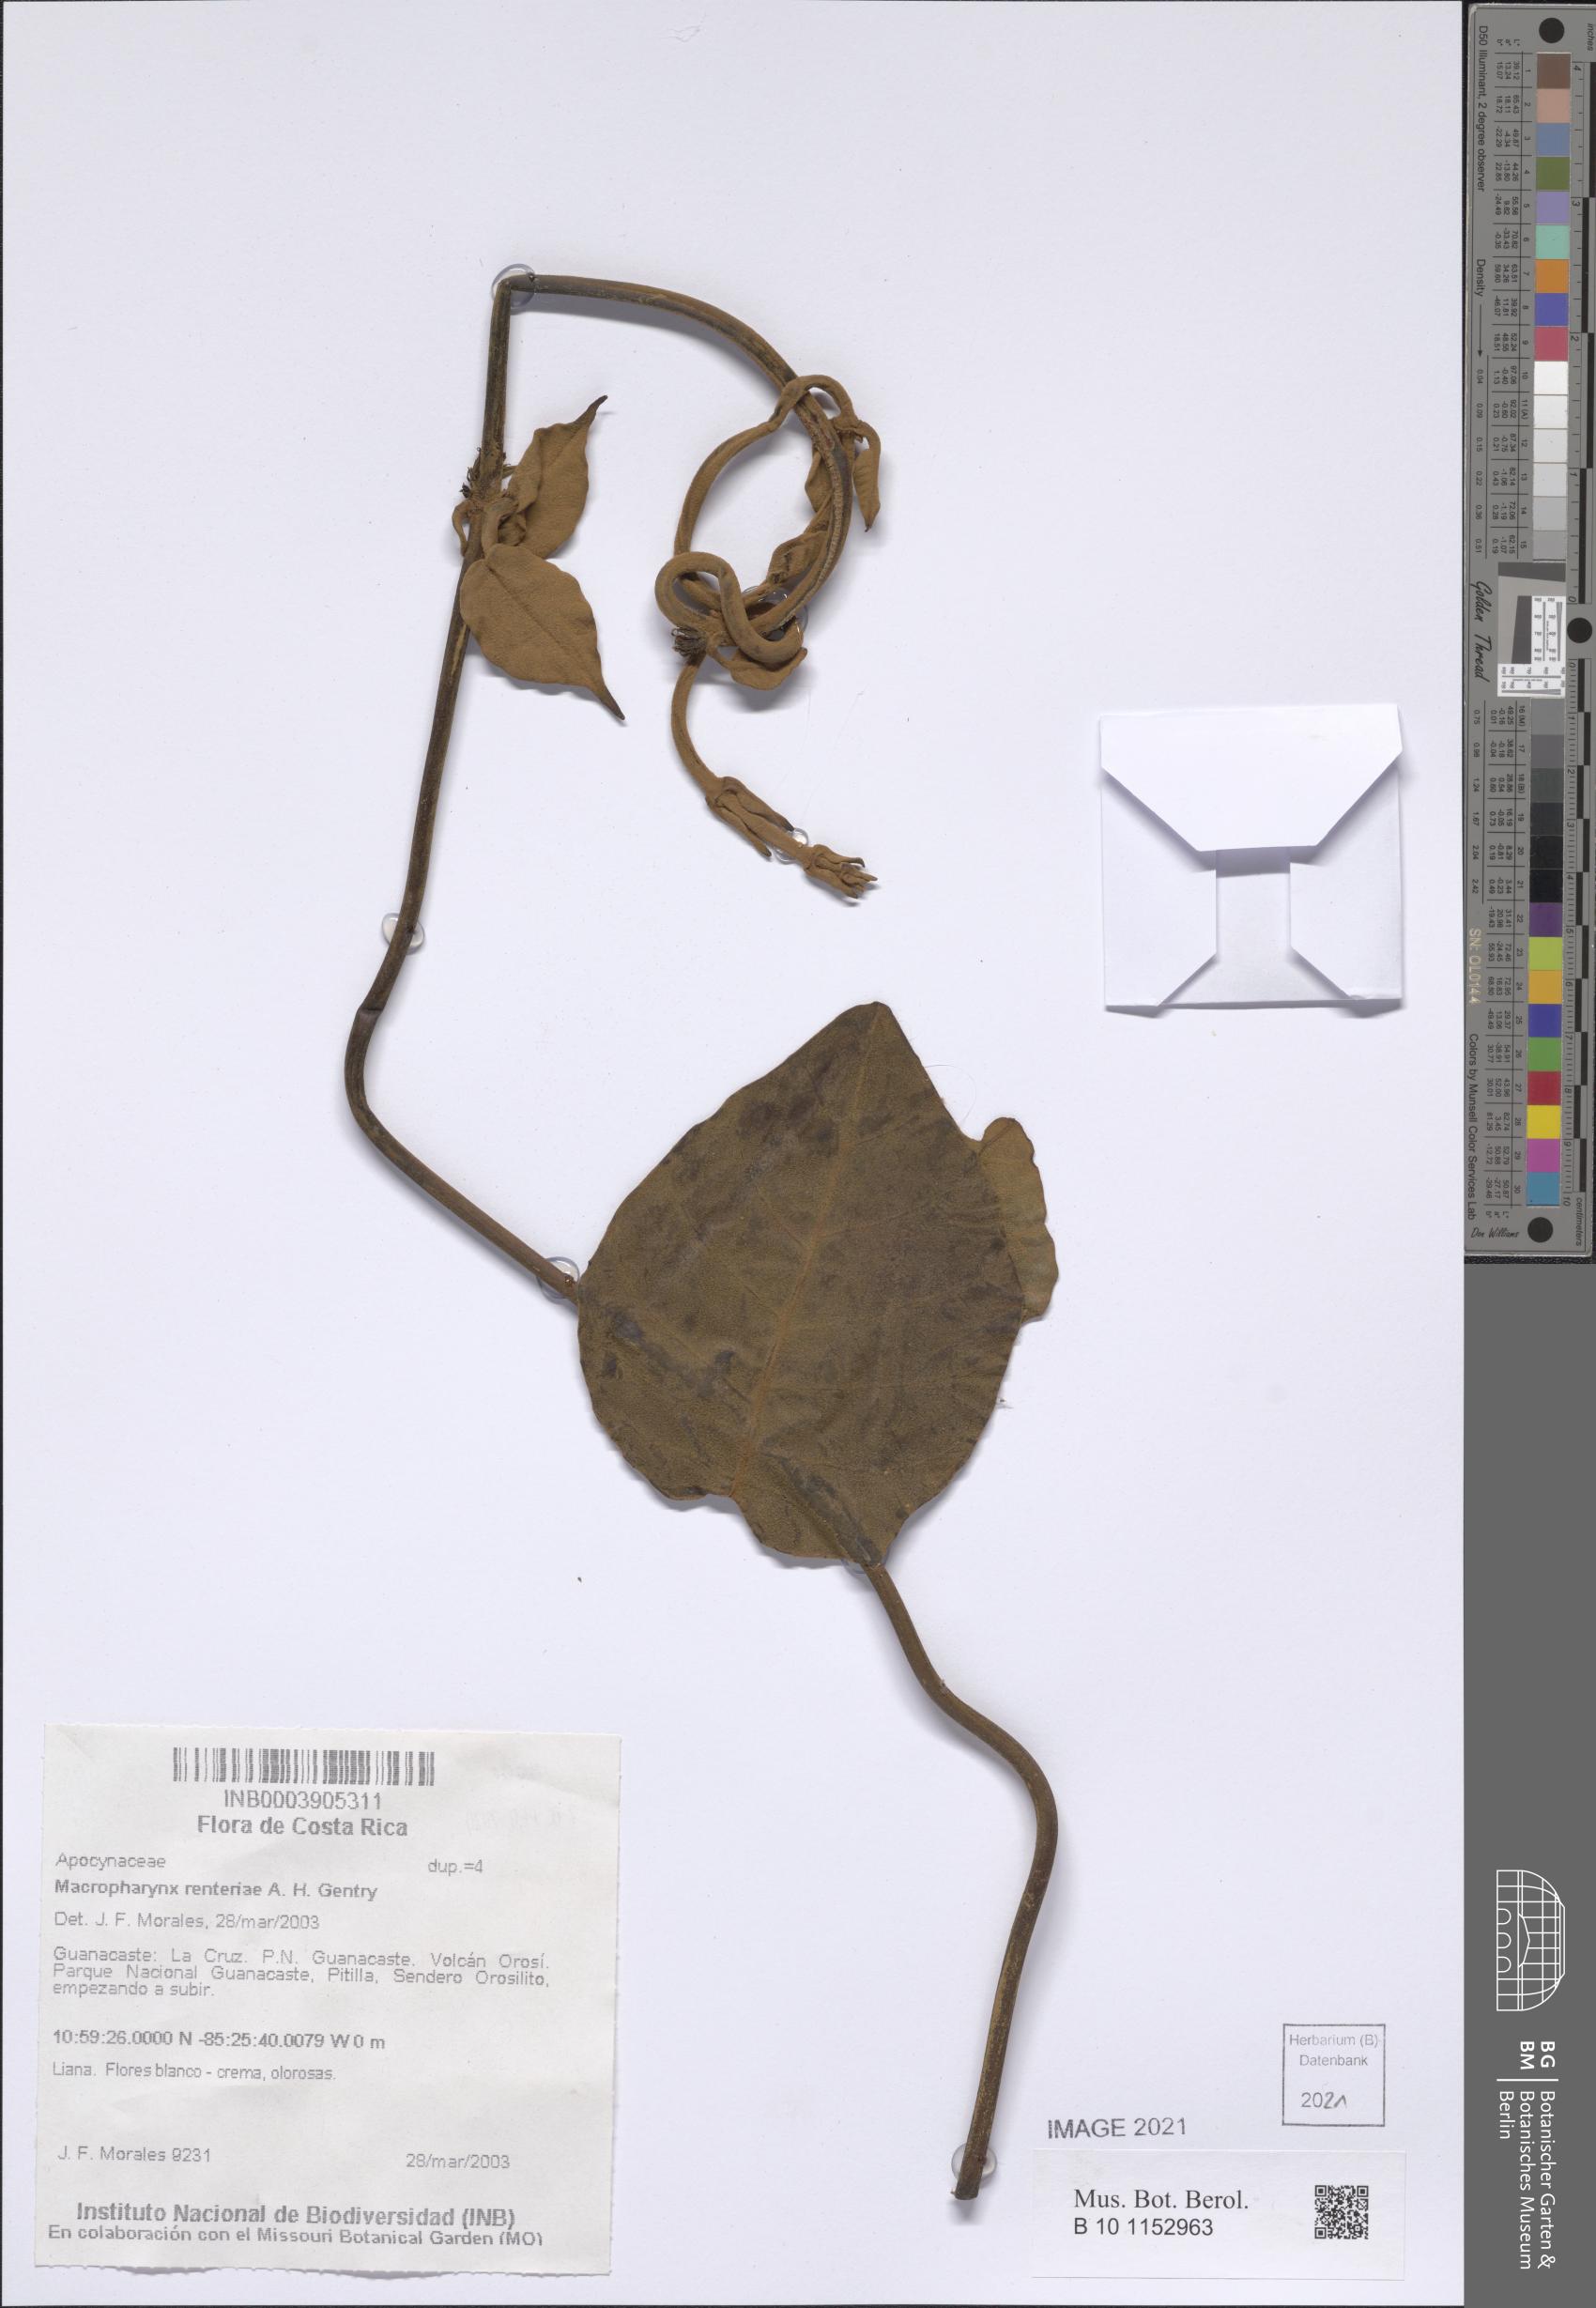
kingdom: Plantae
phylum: Tracheophyta
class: Magnoliopsida
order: Gentianales
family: Apocynaceae
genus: Macropharynx
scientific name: Macropharynx renteriae
